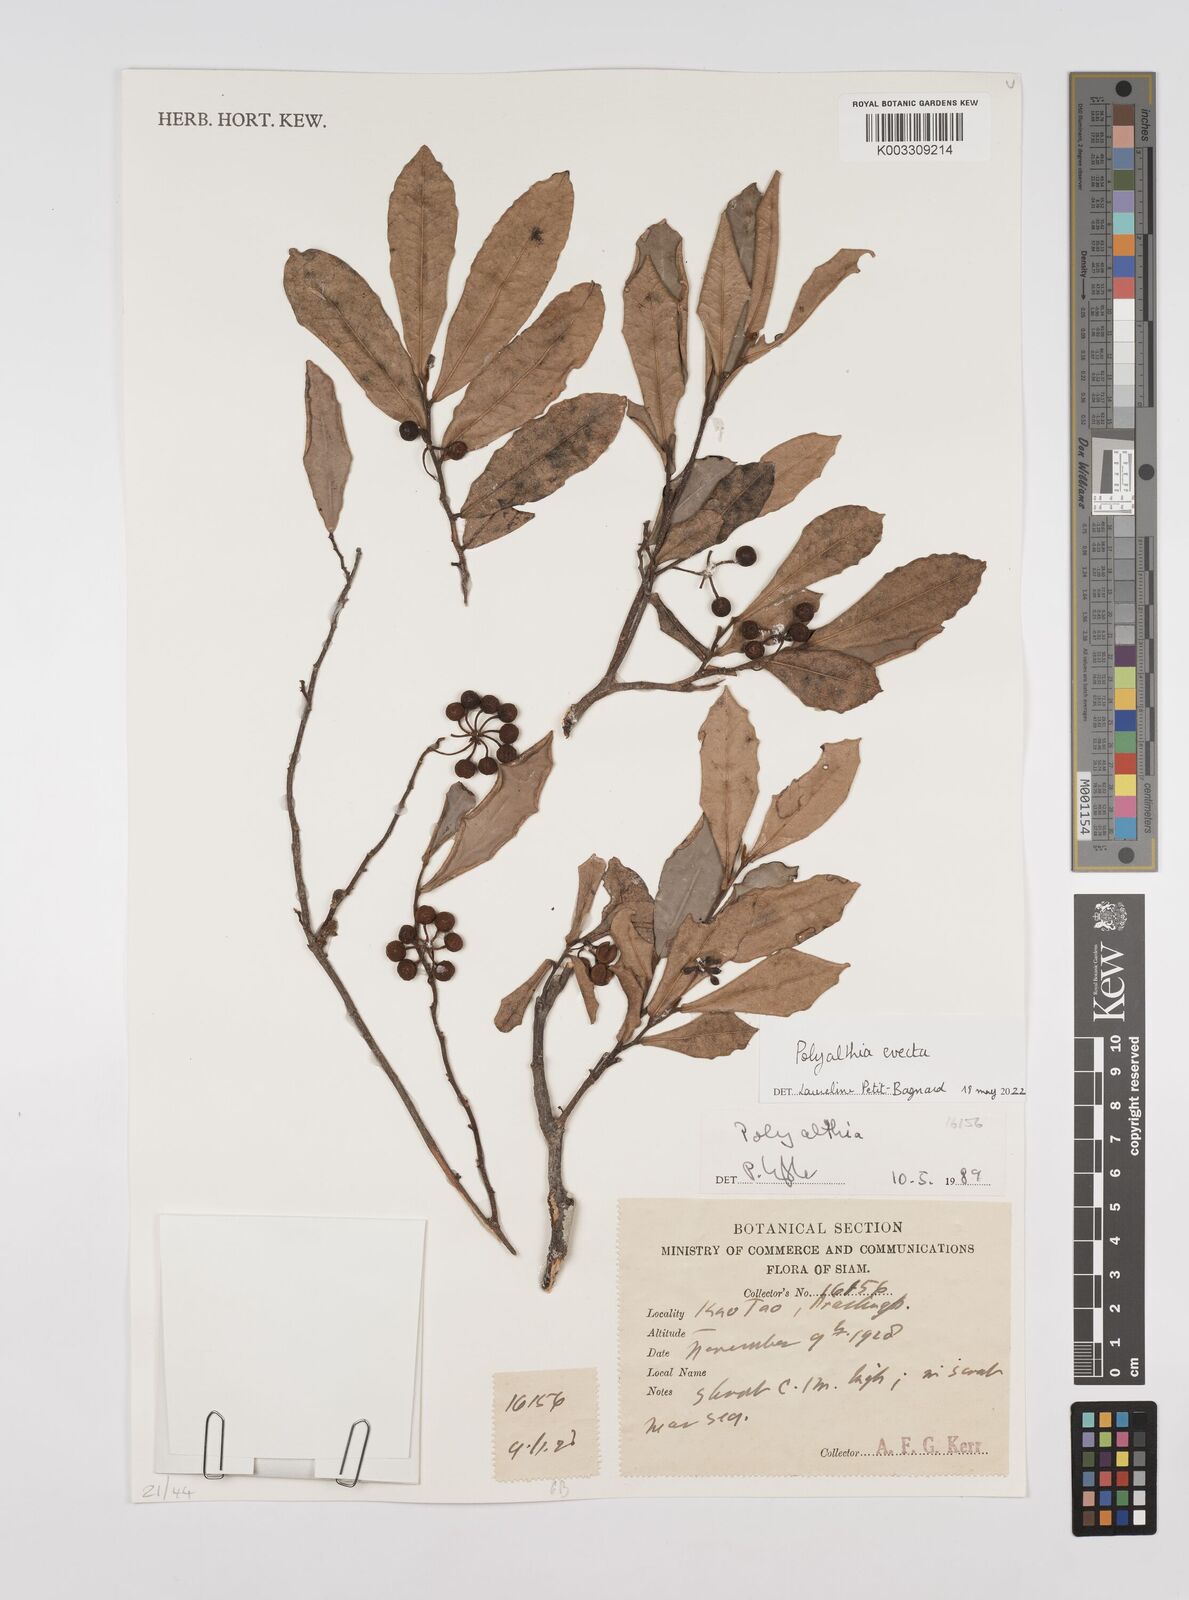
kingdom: Plantae
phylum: Tracheophyta
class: Magnoliopsida
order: Magnoliales
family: Annonaceae
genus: Polyalthia
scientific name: Polyalthia evecta
